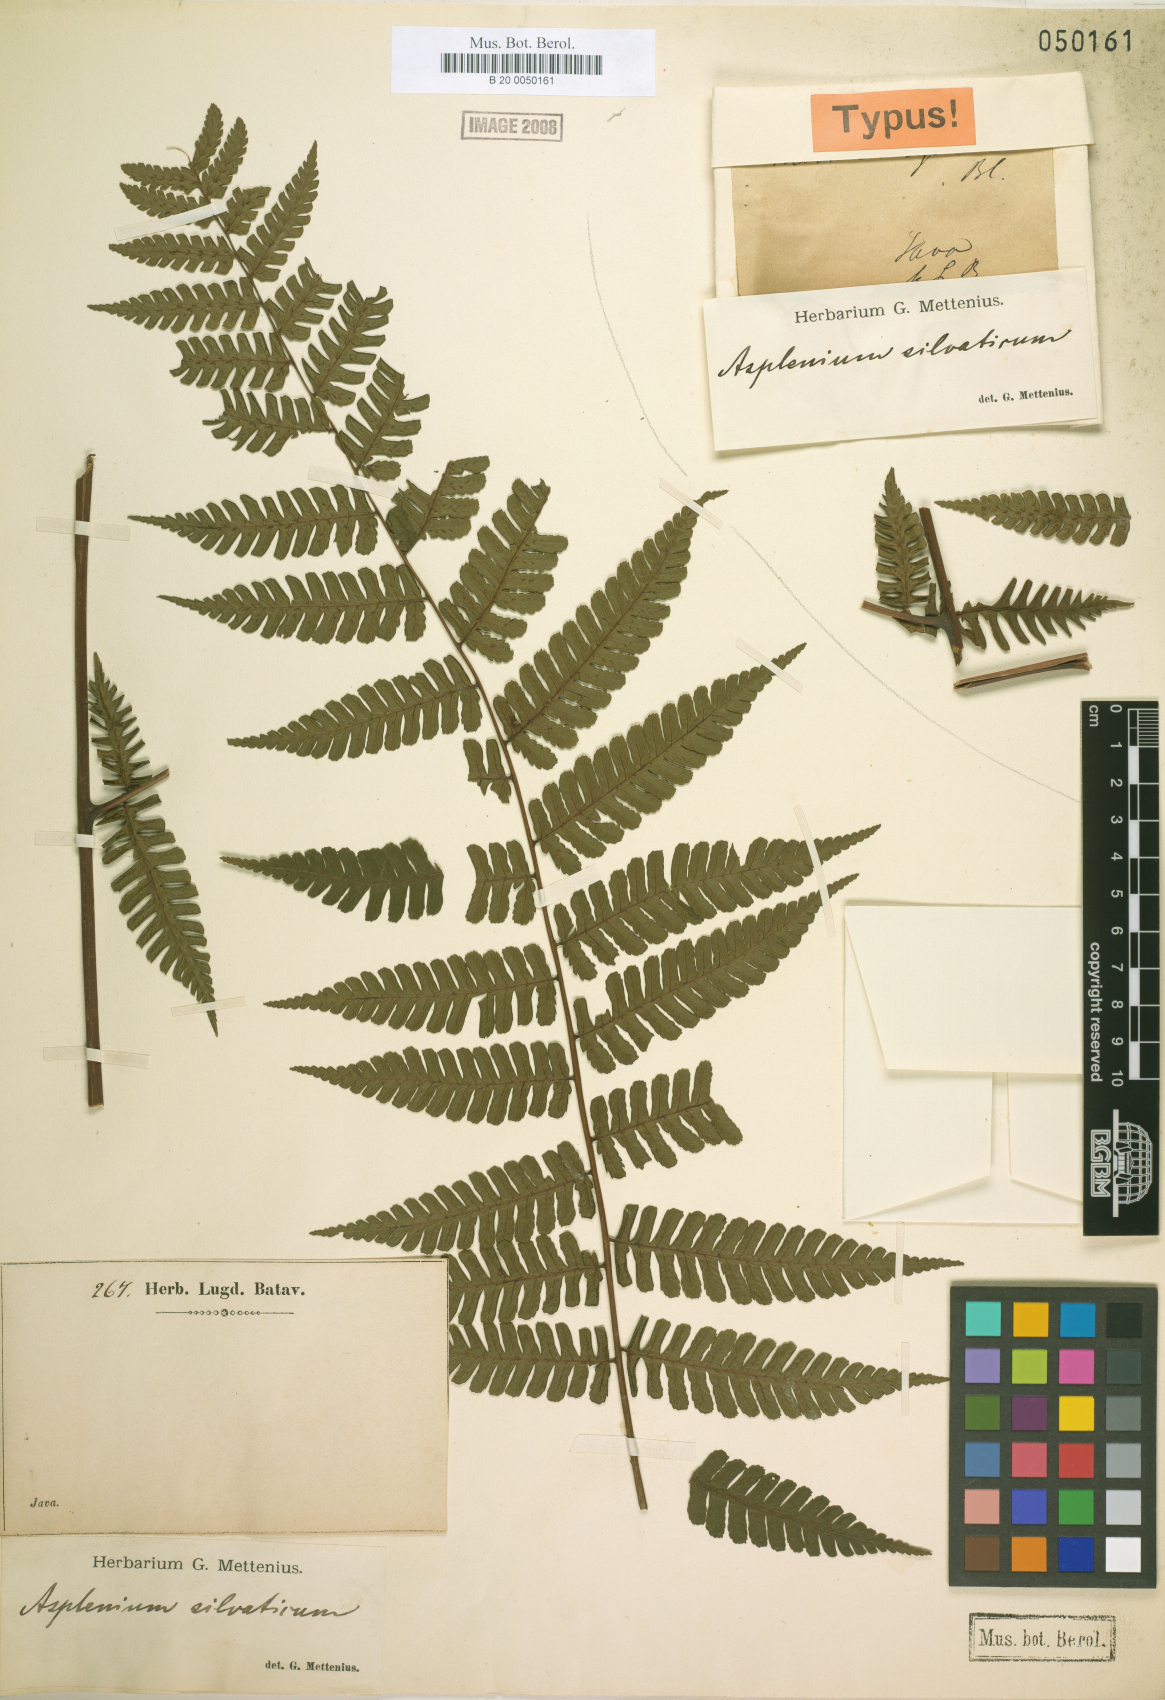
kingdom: Plantae
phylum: Tracheophyta
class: Polypodiopsida
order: Polypodiales
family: Athyriaceae
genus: Diplazium
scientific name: Diplazium
